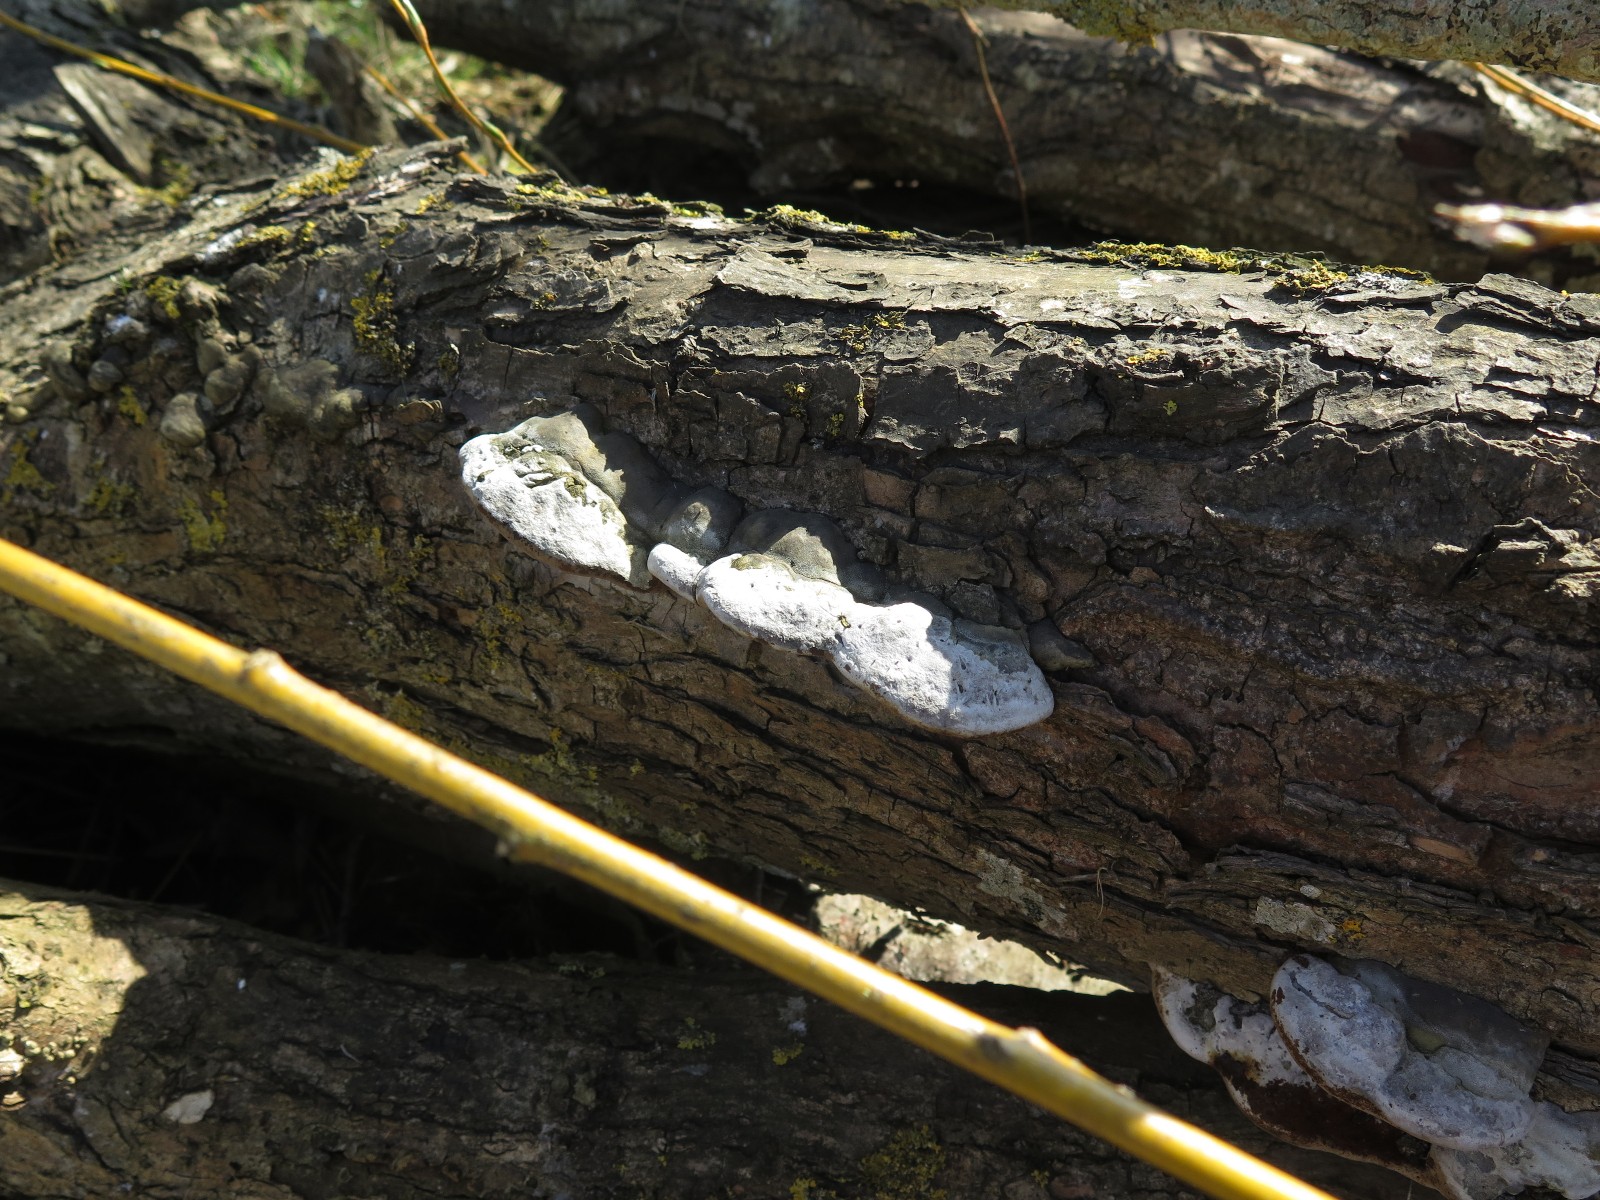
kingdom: Fungi
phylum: Basidiomycota
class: Agaricomycetes
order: Hymenochaetales
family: Hymenochaetaceae
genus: Phellinus
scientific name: Phellinus igniarius
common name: almindelig ildporesvamp
